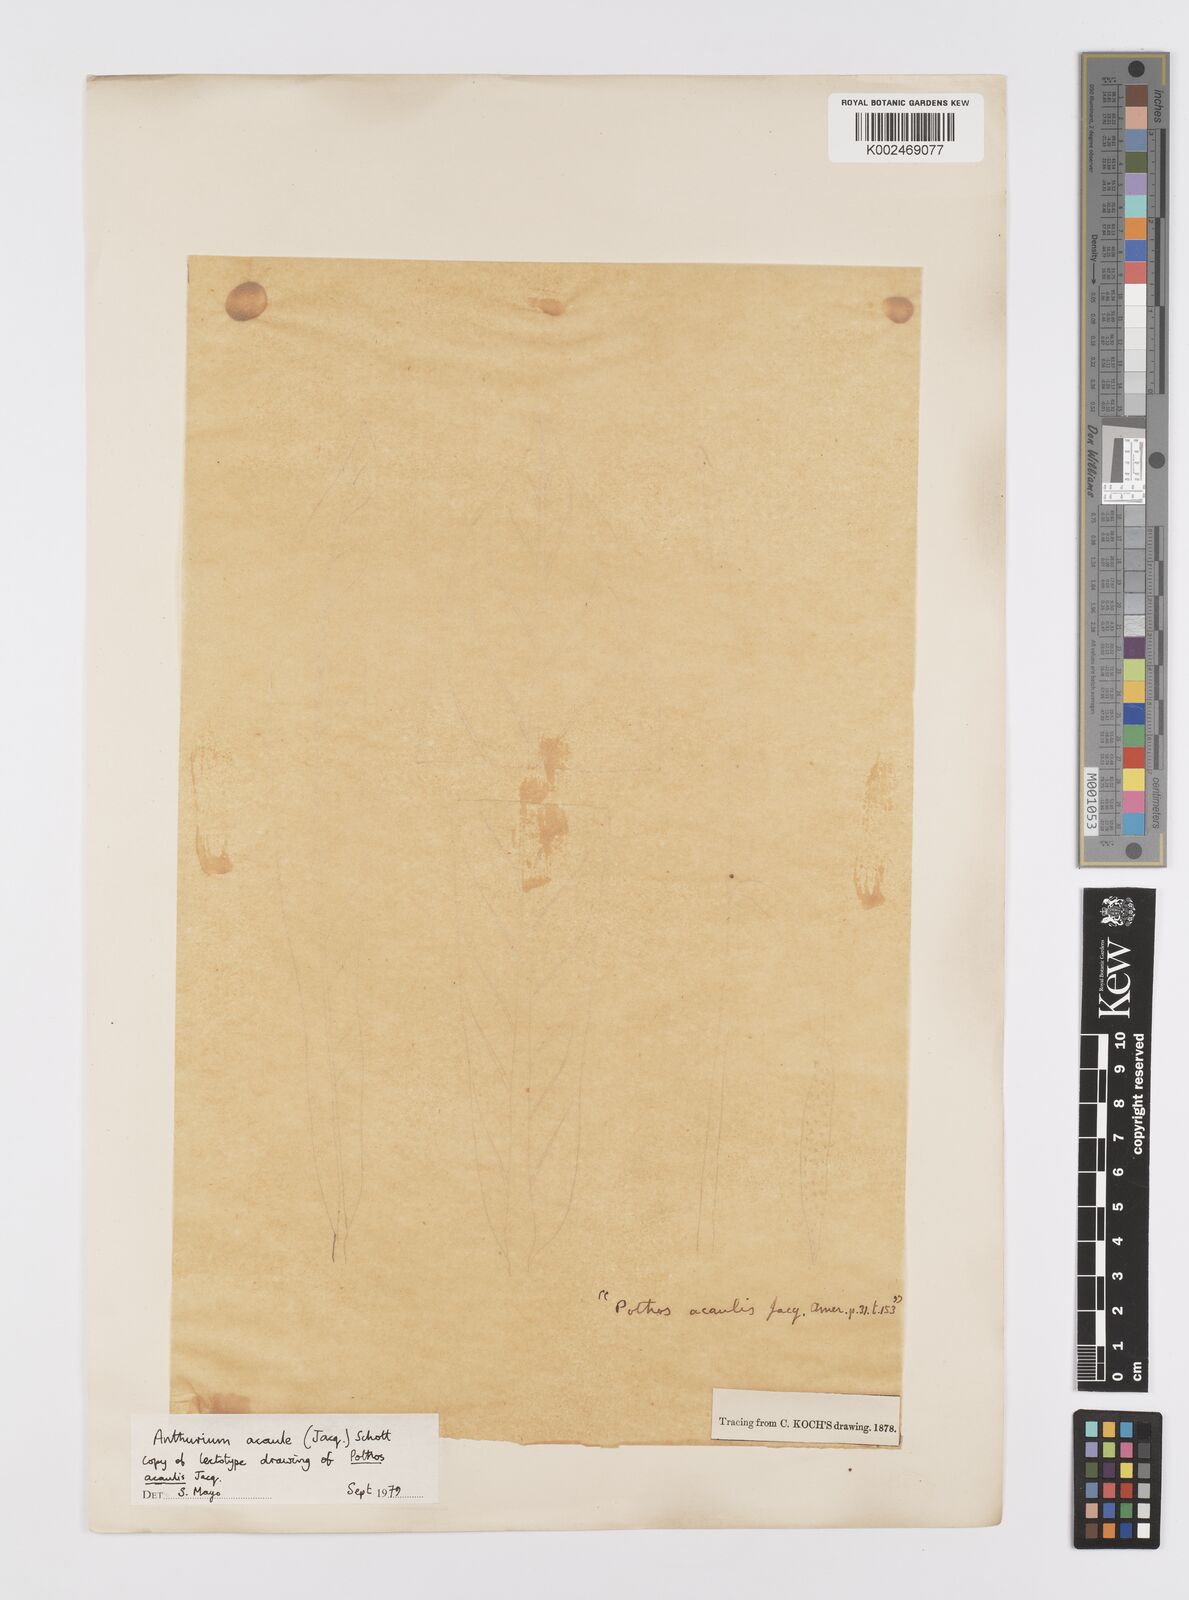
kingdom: Plantae
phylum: Tracheophyta
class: Liliopsida
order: Alismatales
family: Araceae
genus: Anthurium
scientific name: Anthurium acaule
